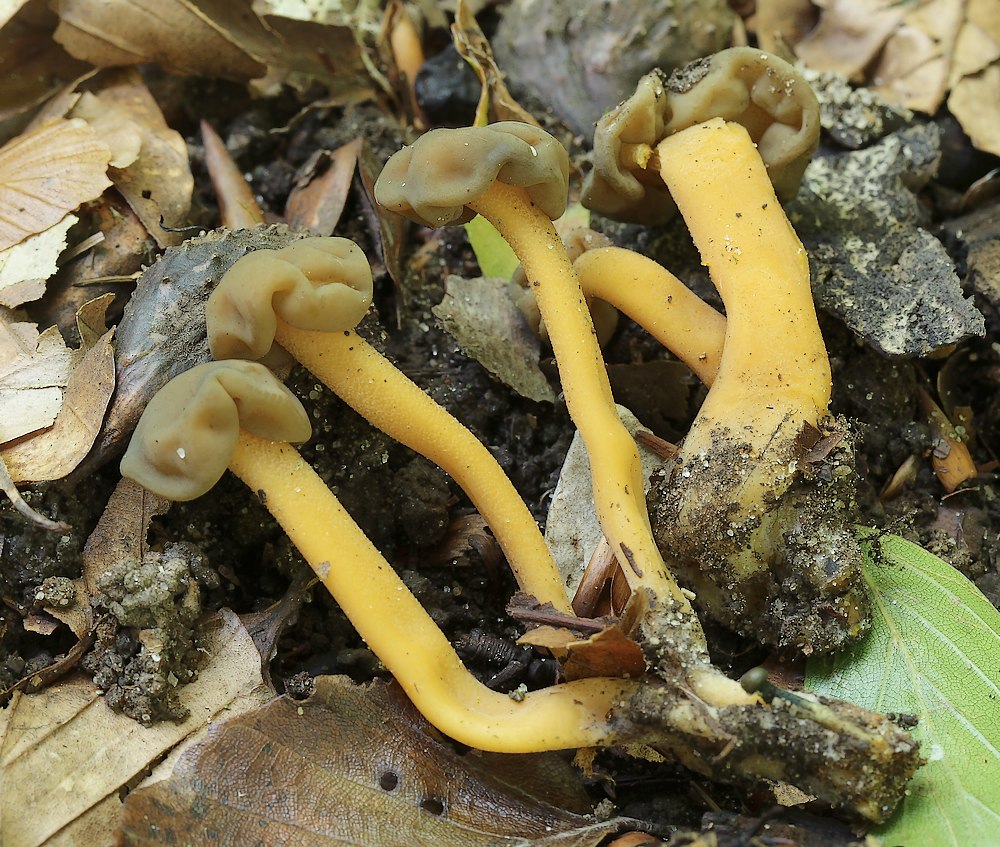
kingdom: Fungi
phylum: Ascomycota
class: Leotiomycetes
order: Leotiales
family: Leotiaceae
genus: Leotia
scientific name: Leotia lubrica
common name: ravsvamp
